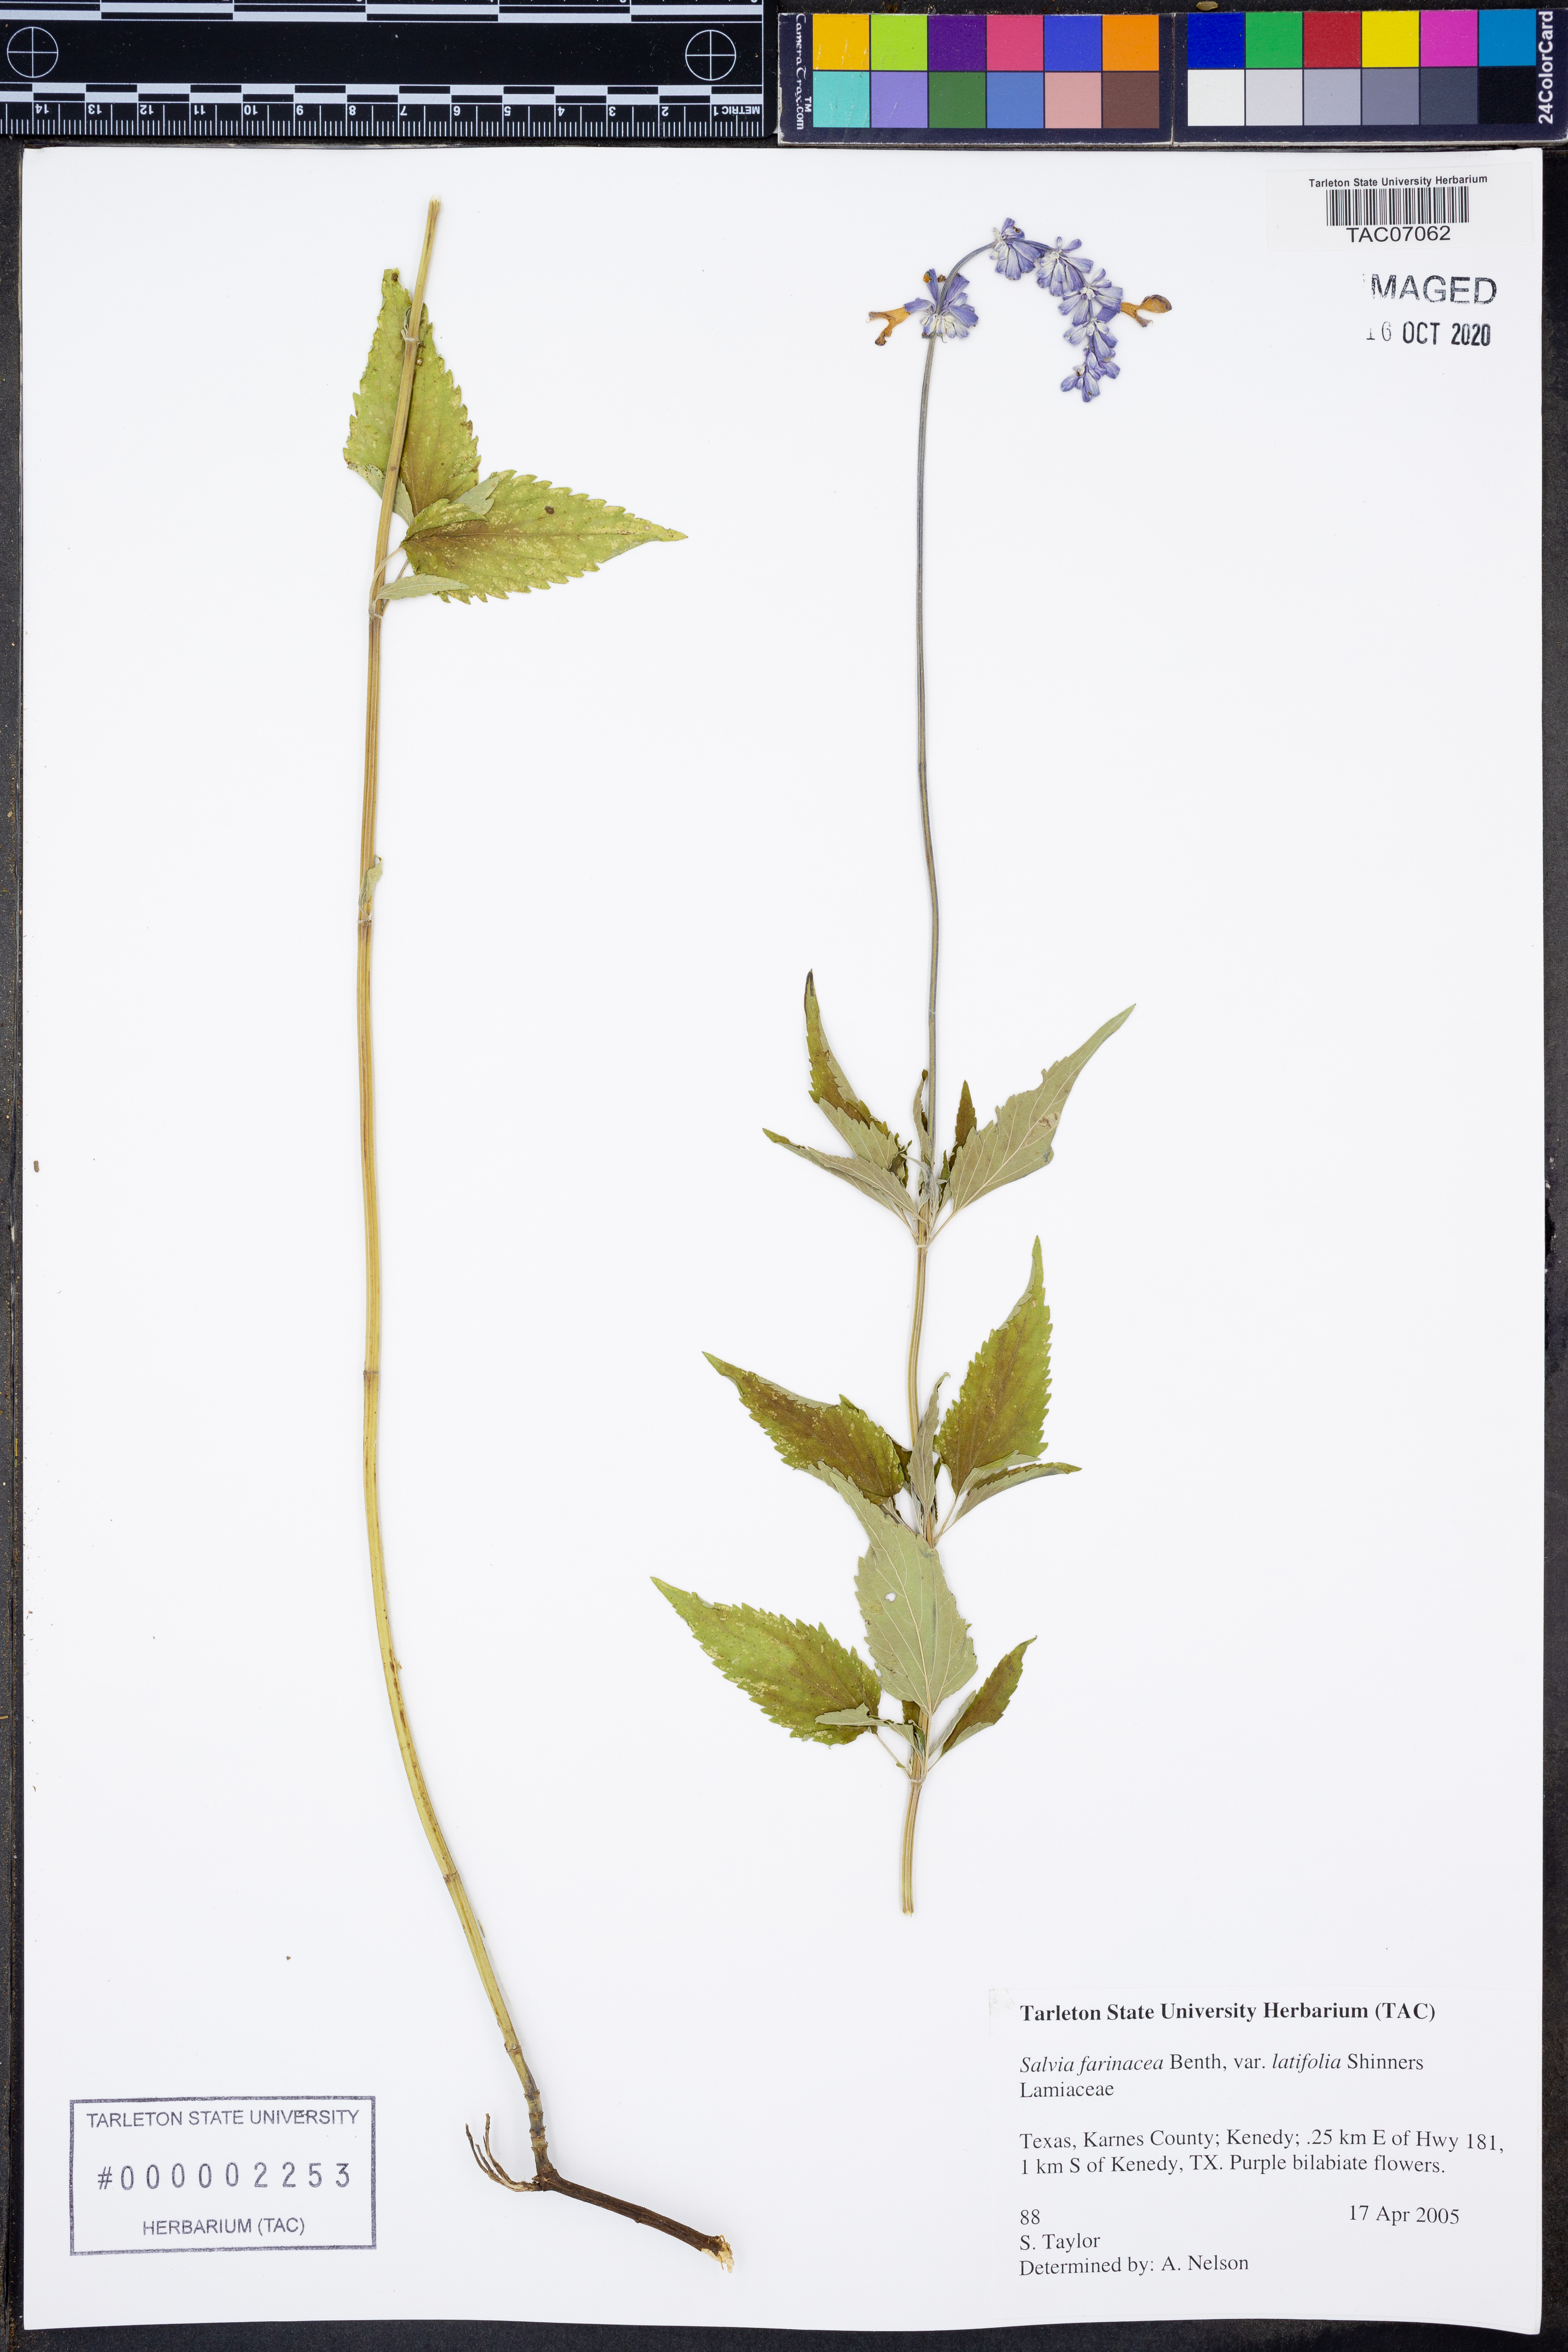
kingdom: Plantae
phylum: Tracheophyta
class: Magnoliopsida
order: Lamiales
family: Lamiaceae
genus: Salvia
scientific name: Salvia farinacea
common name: Mealy sage
